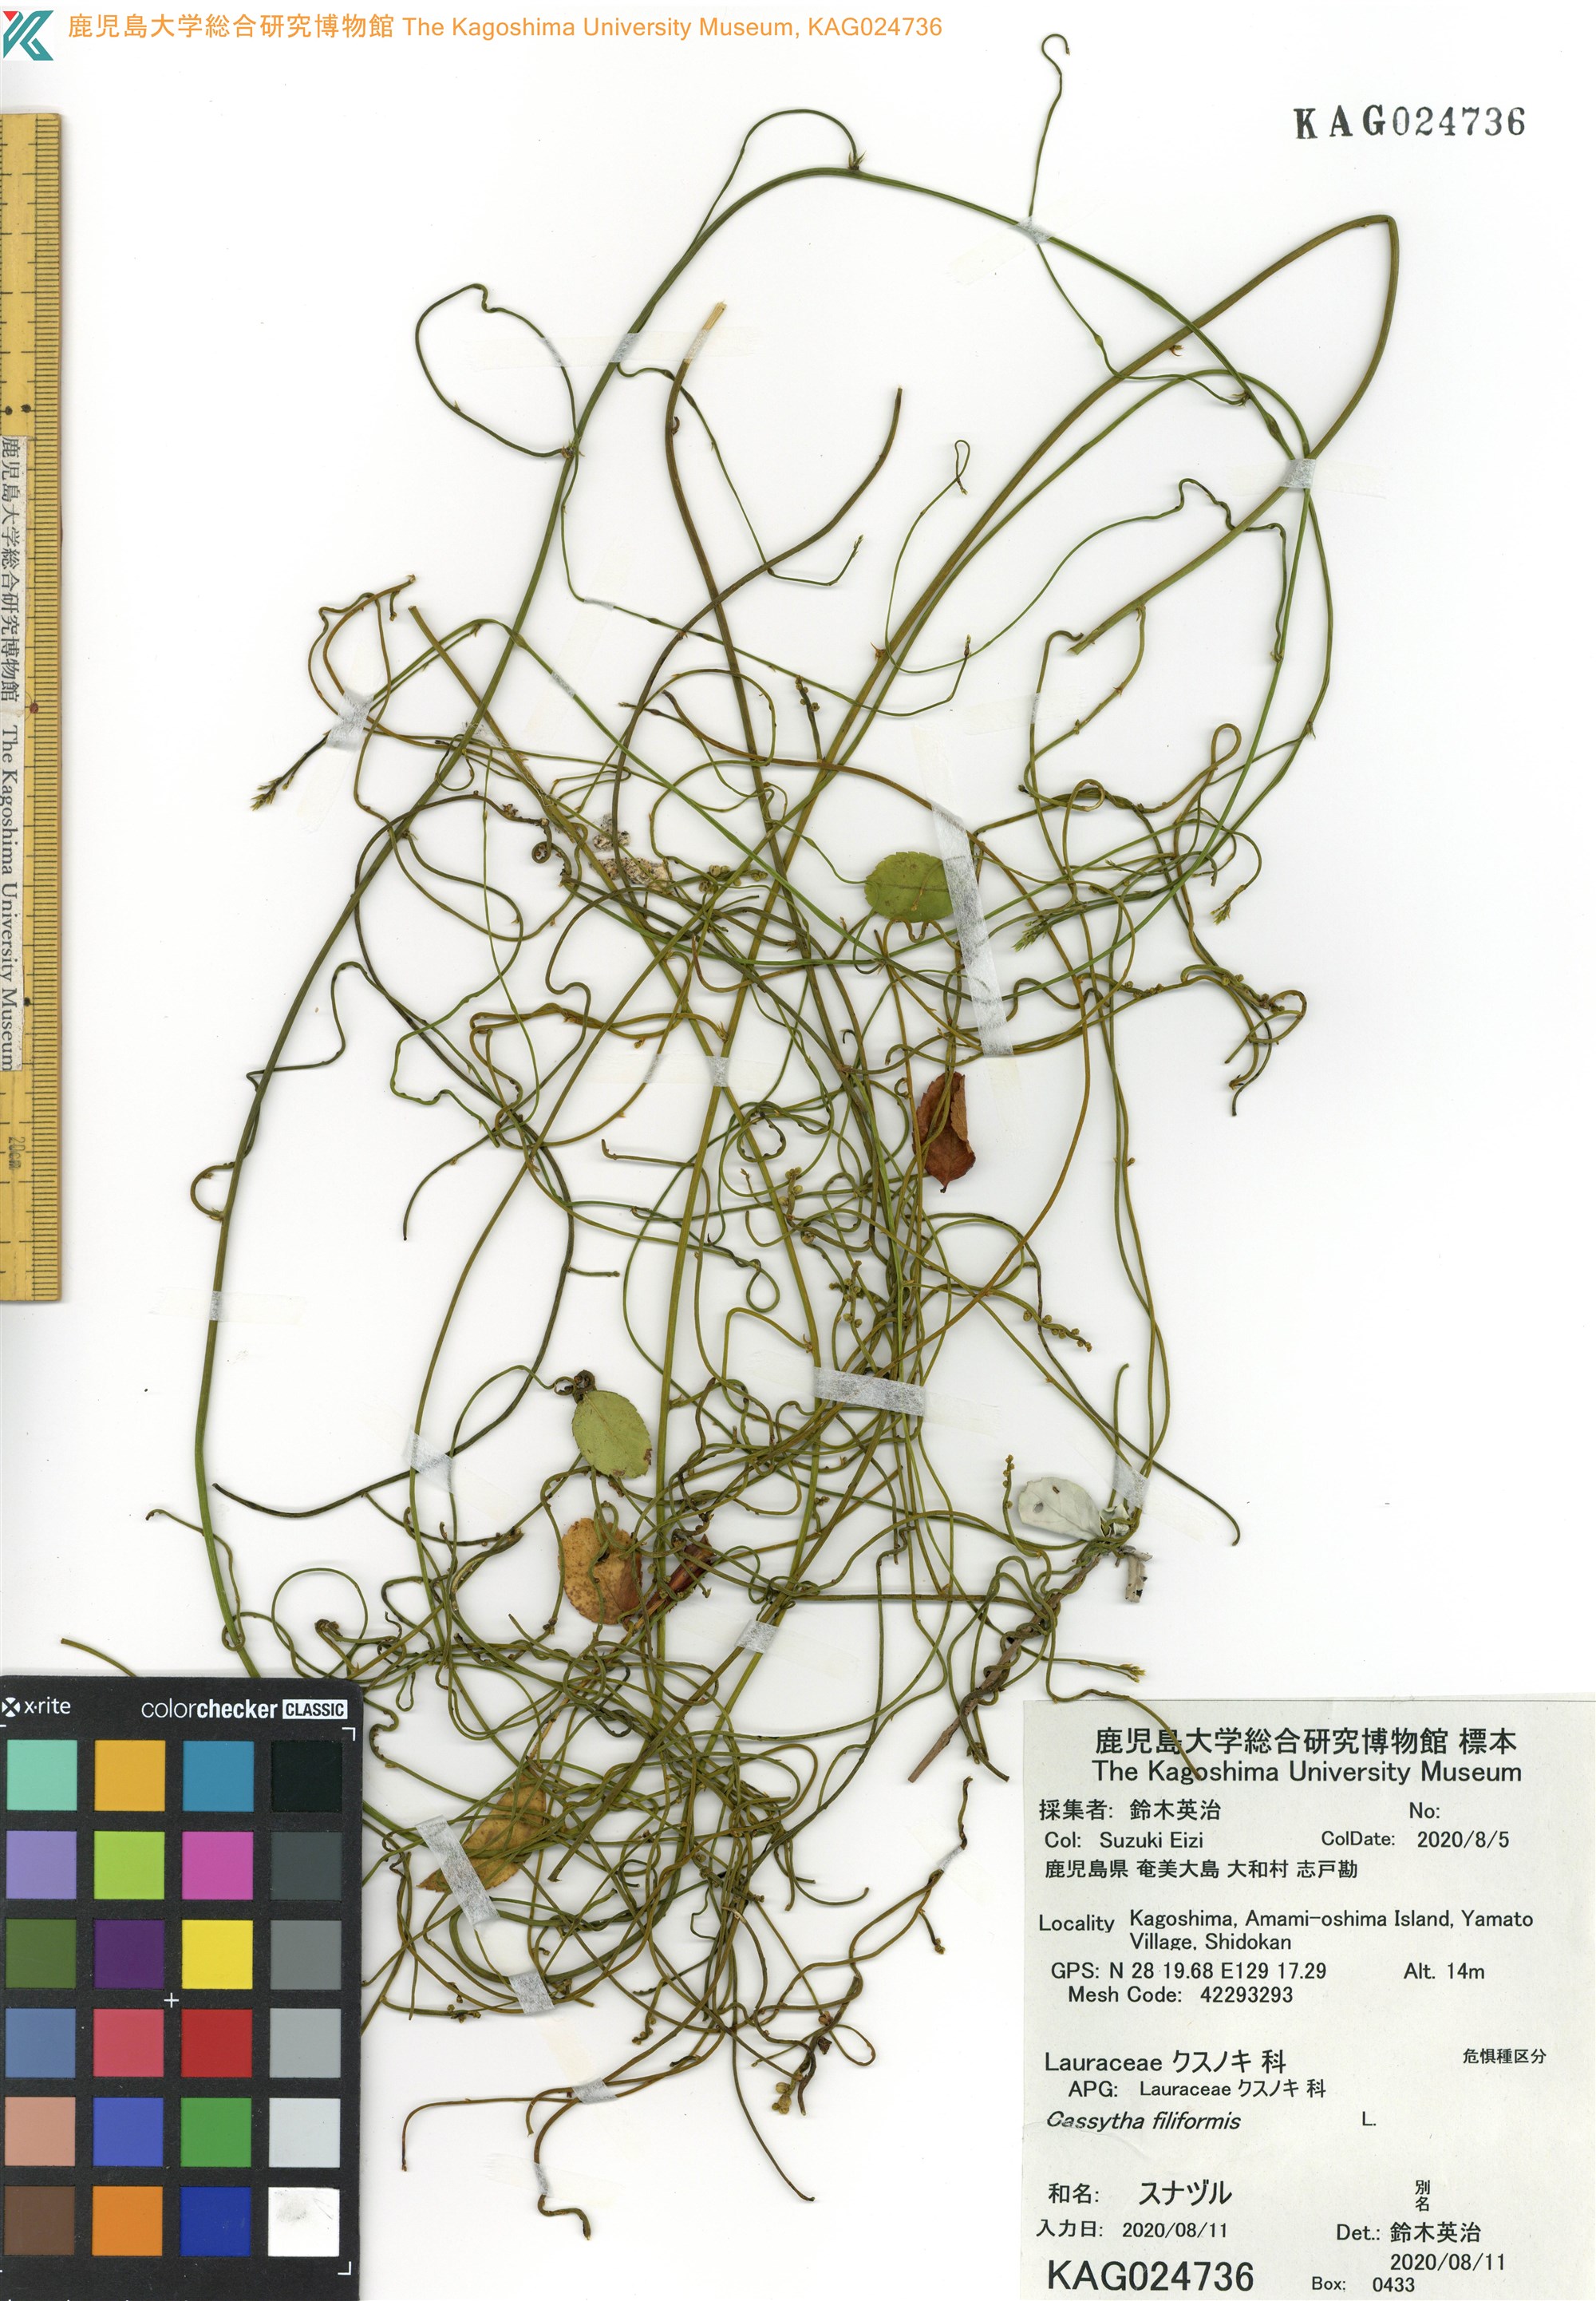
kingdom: Plantae
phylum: Tracheophyta
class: Magnoliopsida
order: Laurales
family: Lauraceae
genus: Cassytha
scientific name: Cassytha filiformis
